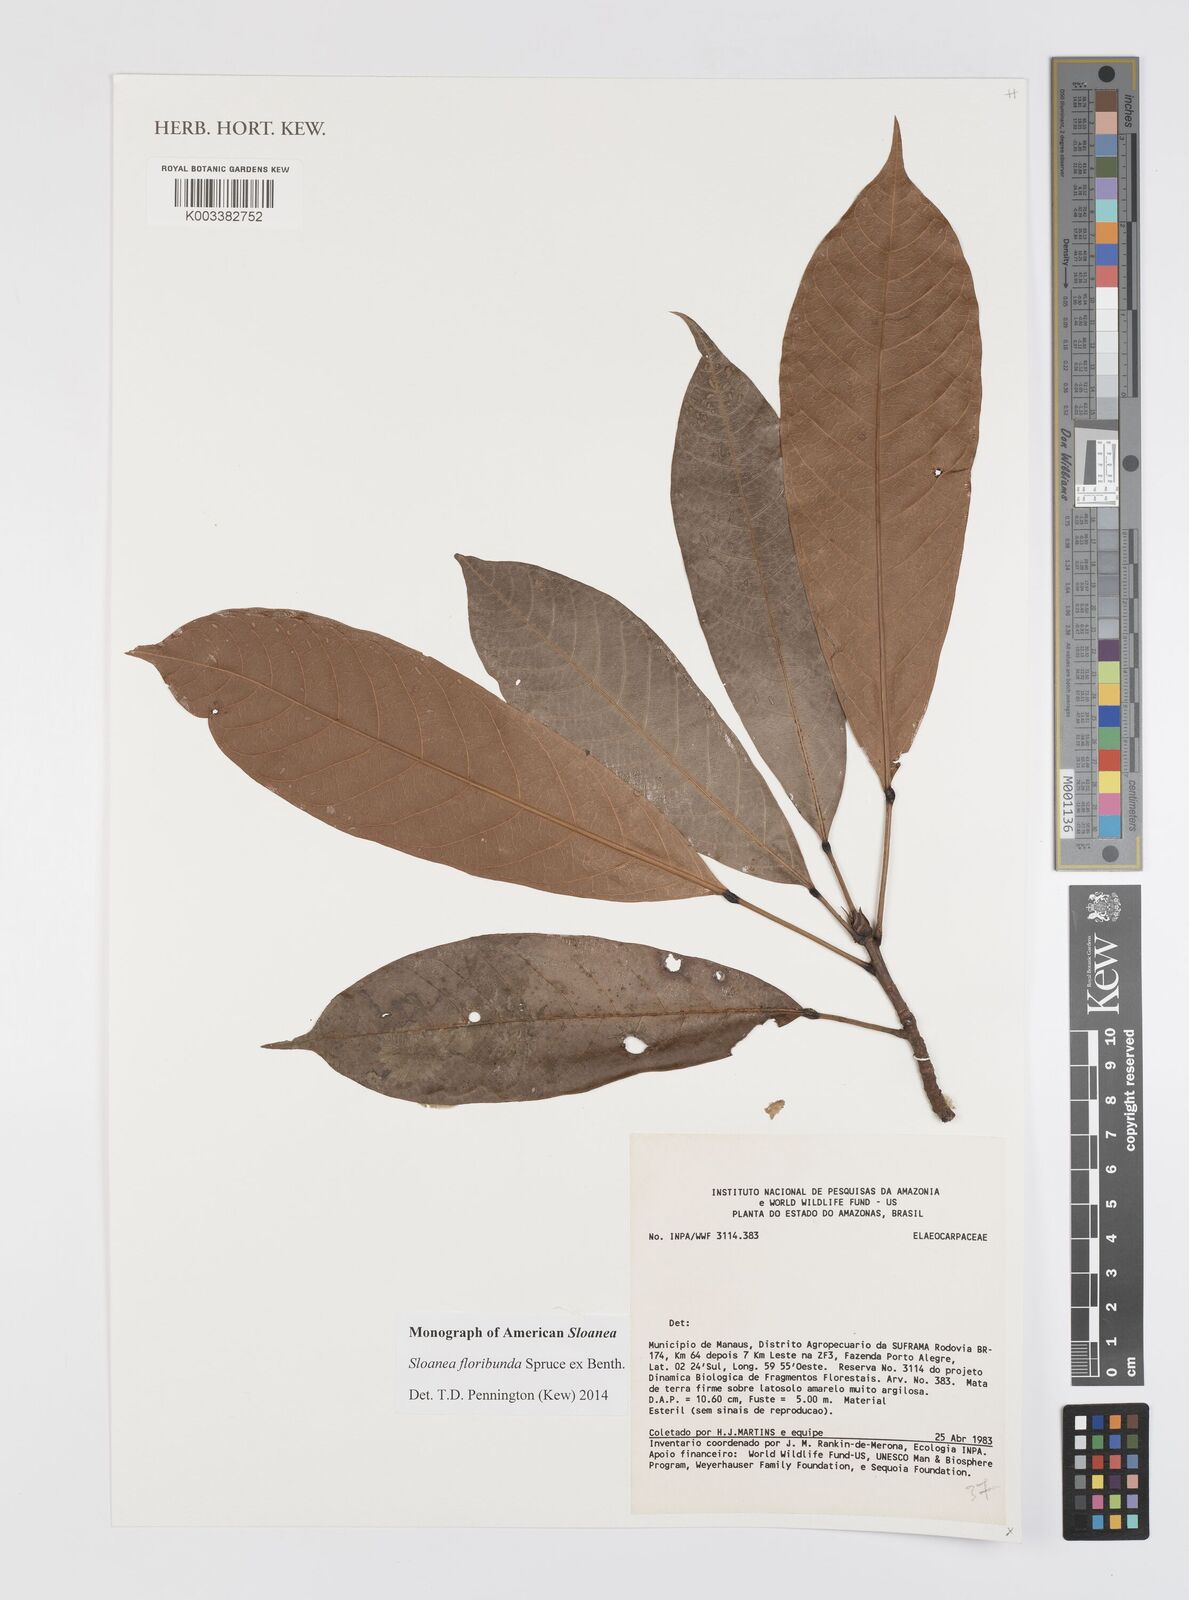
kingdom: Plantae
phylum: Tracheophyta
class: Magnoliopsida
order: Oxalidales
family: Elaeocarpaceae
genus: Sloanea
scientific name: Sloanea floribunda
